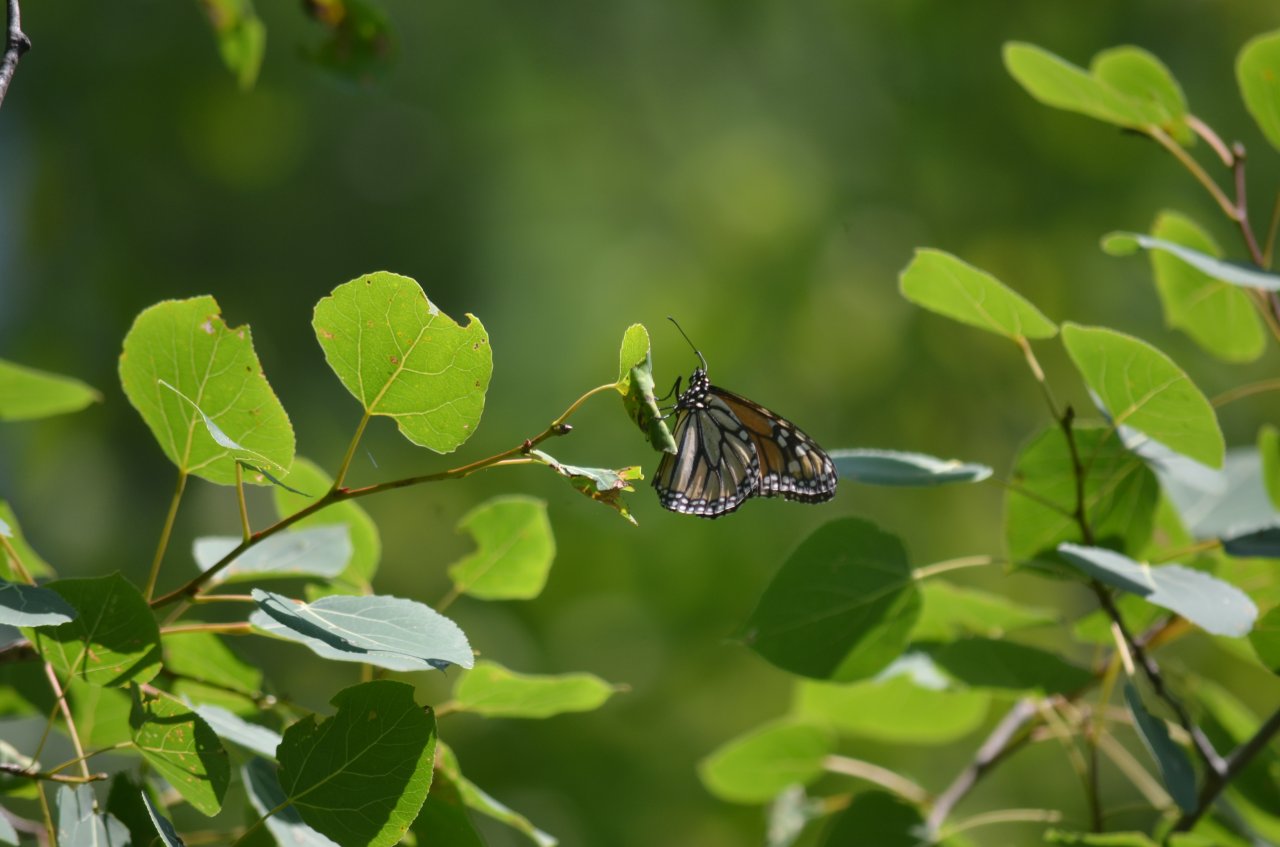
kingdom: Animalia
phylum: Arthropoda
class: Insecta
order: Lepidoptera
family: Nymphalidae
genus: Danaus
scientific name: Danaus plexippus
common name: Monarch
